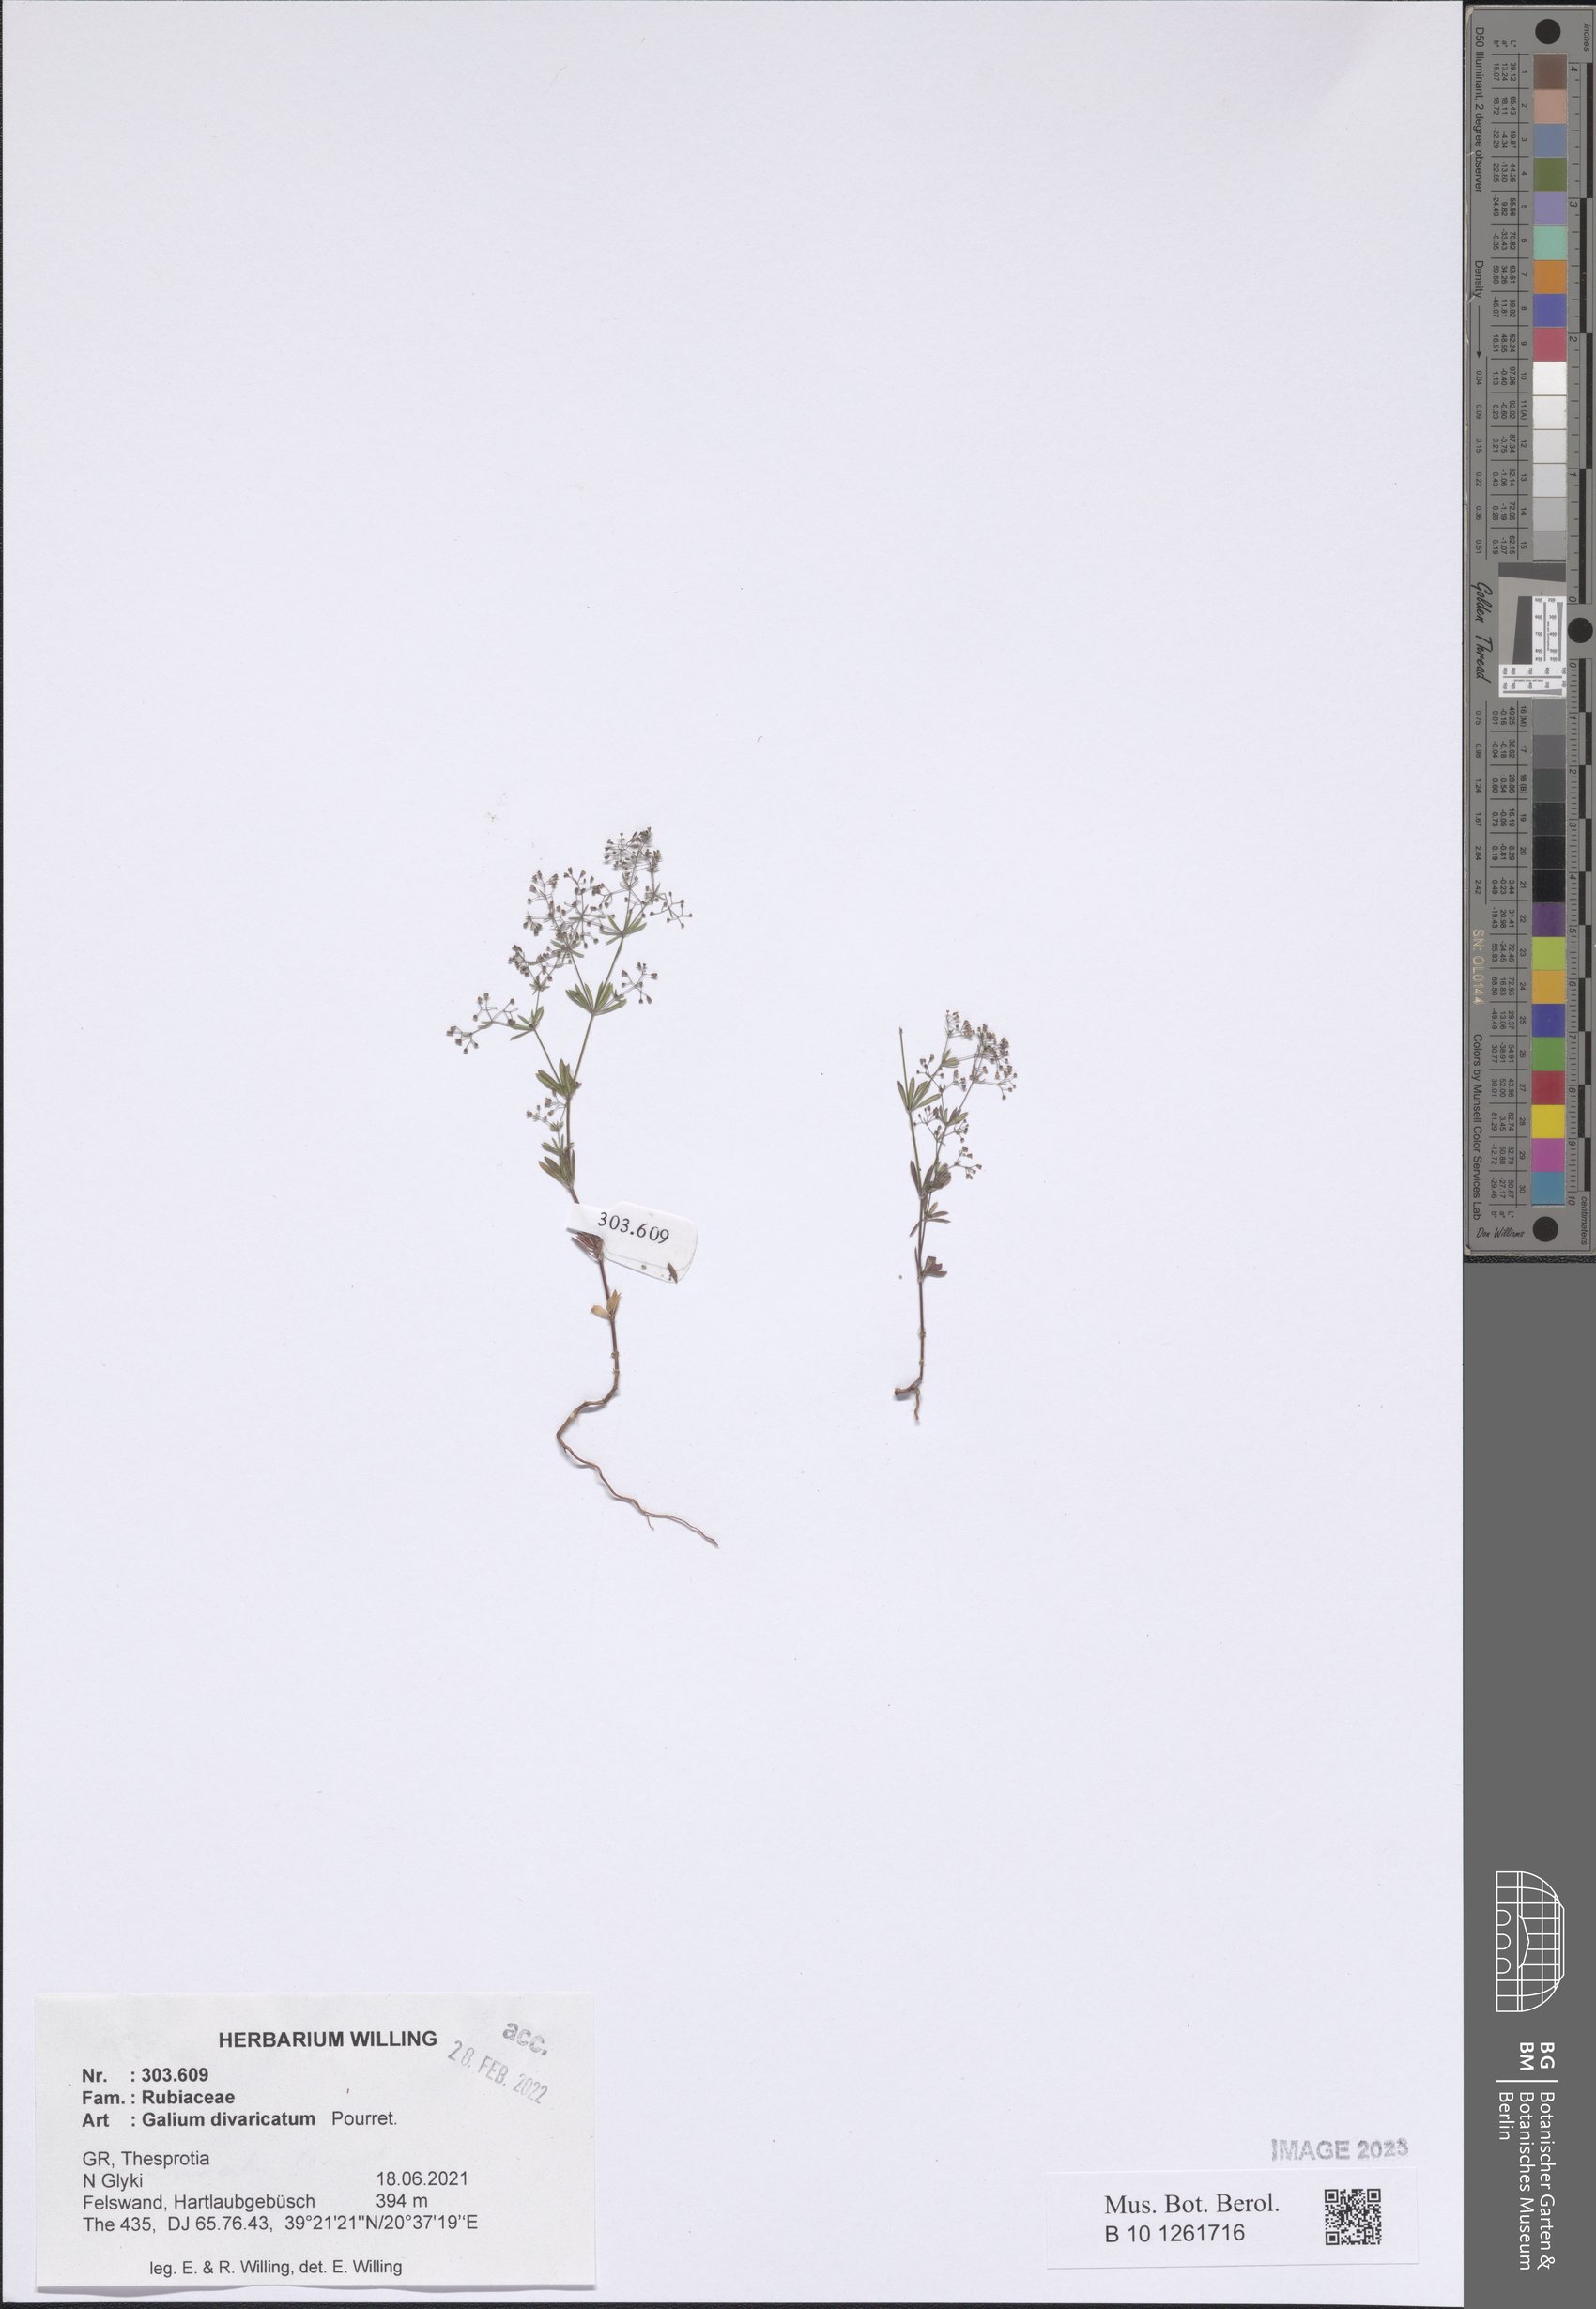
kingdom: Plantae
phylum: Tracheophyta
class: Magnoliopsida
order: Gentianales
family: Rubiaceae
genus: Galium
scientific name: Galium divaricatum
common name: Lamarck's bedstraw
